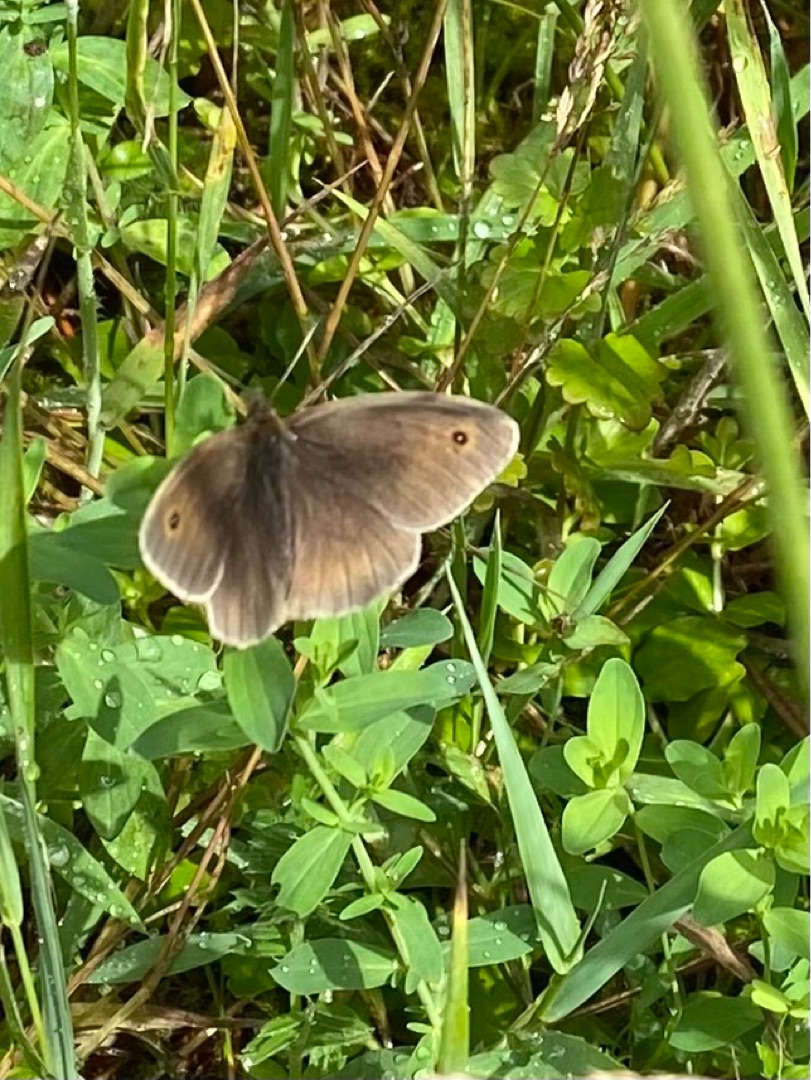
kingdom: Animalia
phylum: Arthropoda
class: Insecta
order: Lepidoptera
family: Nymphalidae
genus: Maniola
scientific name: Maniola jurtina
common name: Græsrandøje
